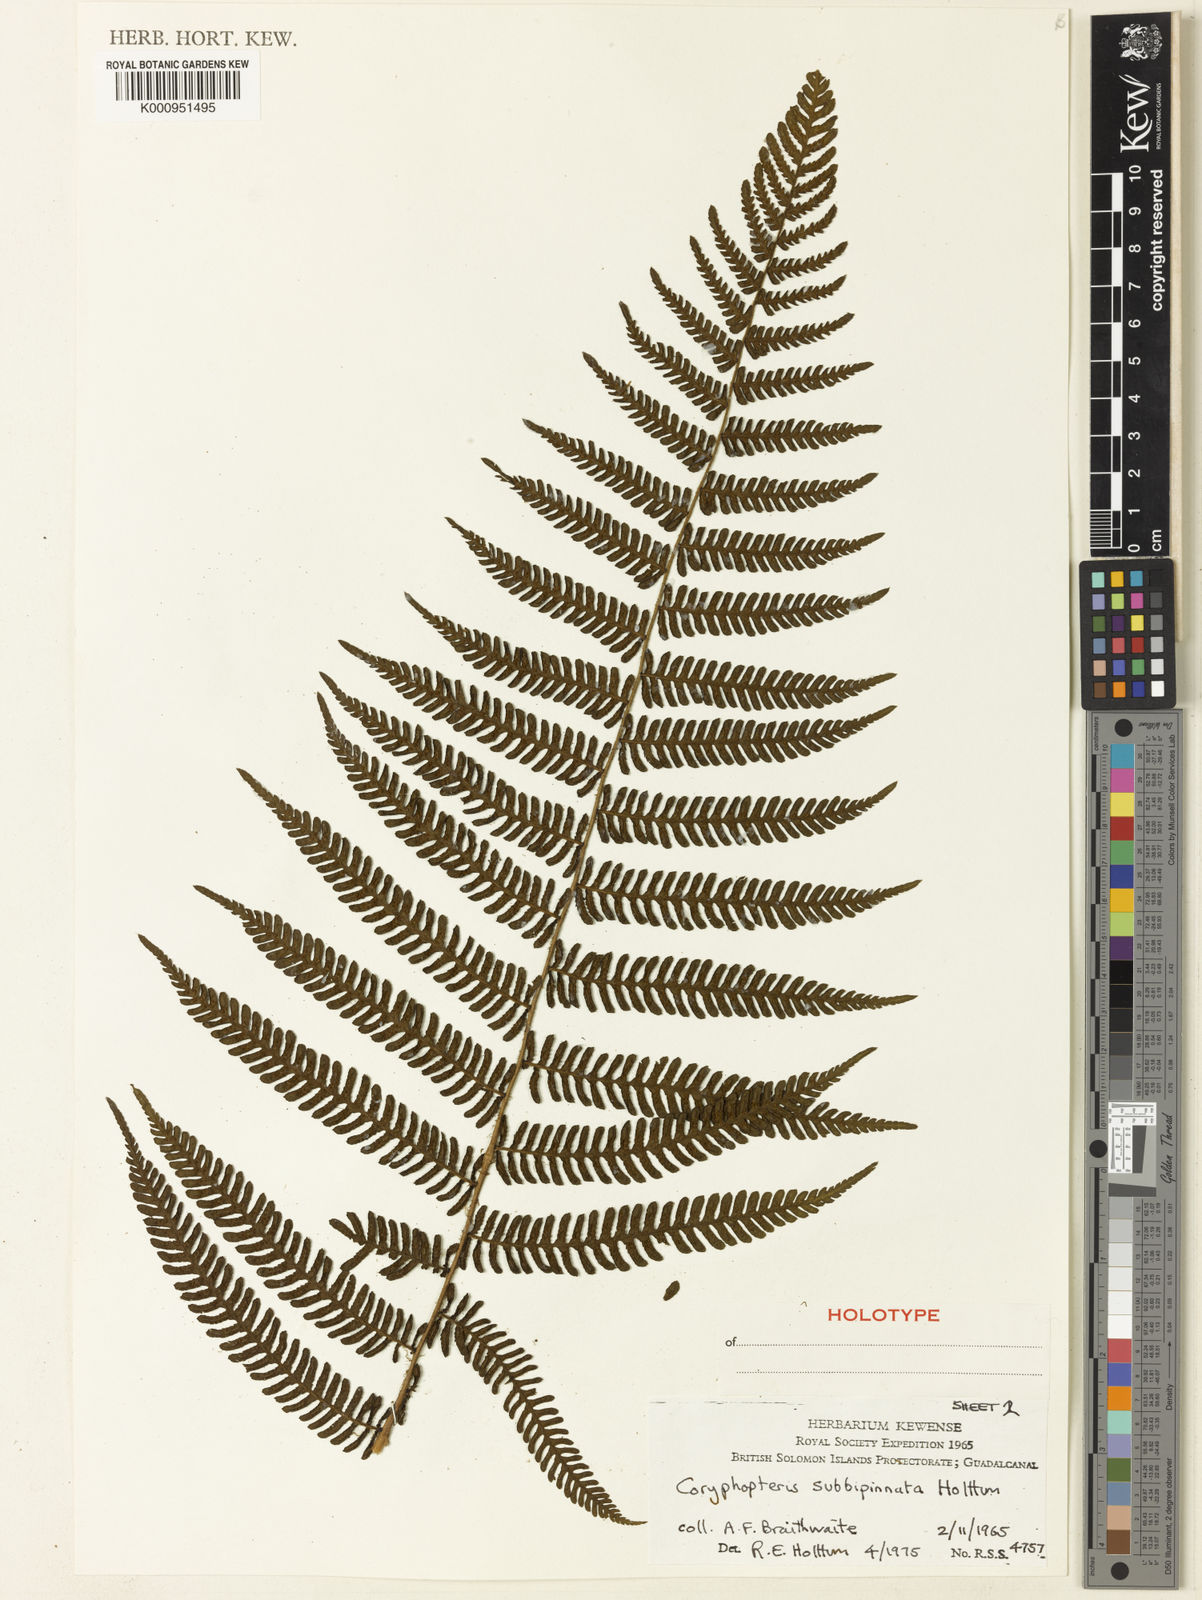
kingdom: Plantae
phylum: Tracheophyta
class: Polypodiopsida
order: Polypodiales
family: Thelypteridaceae
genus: Coryphopteris
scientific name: Coryphopteris subbipinnata
